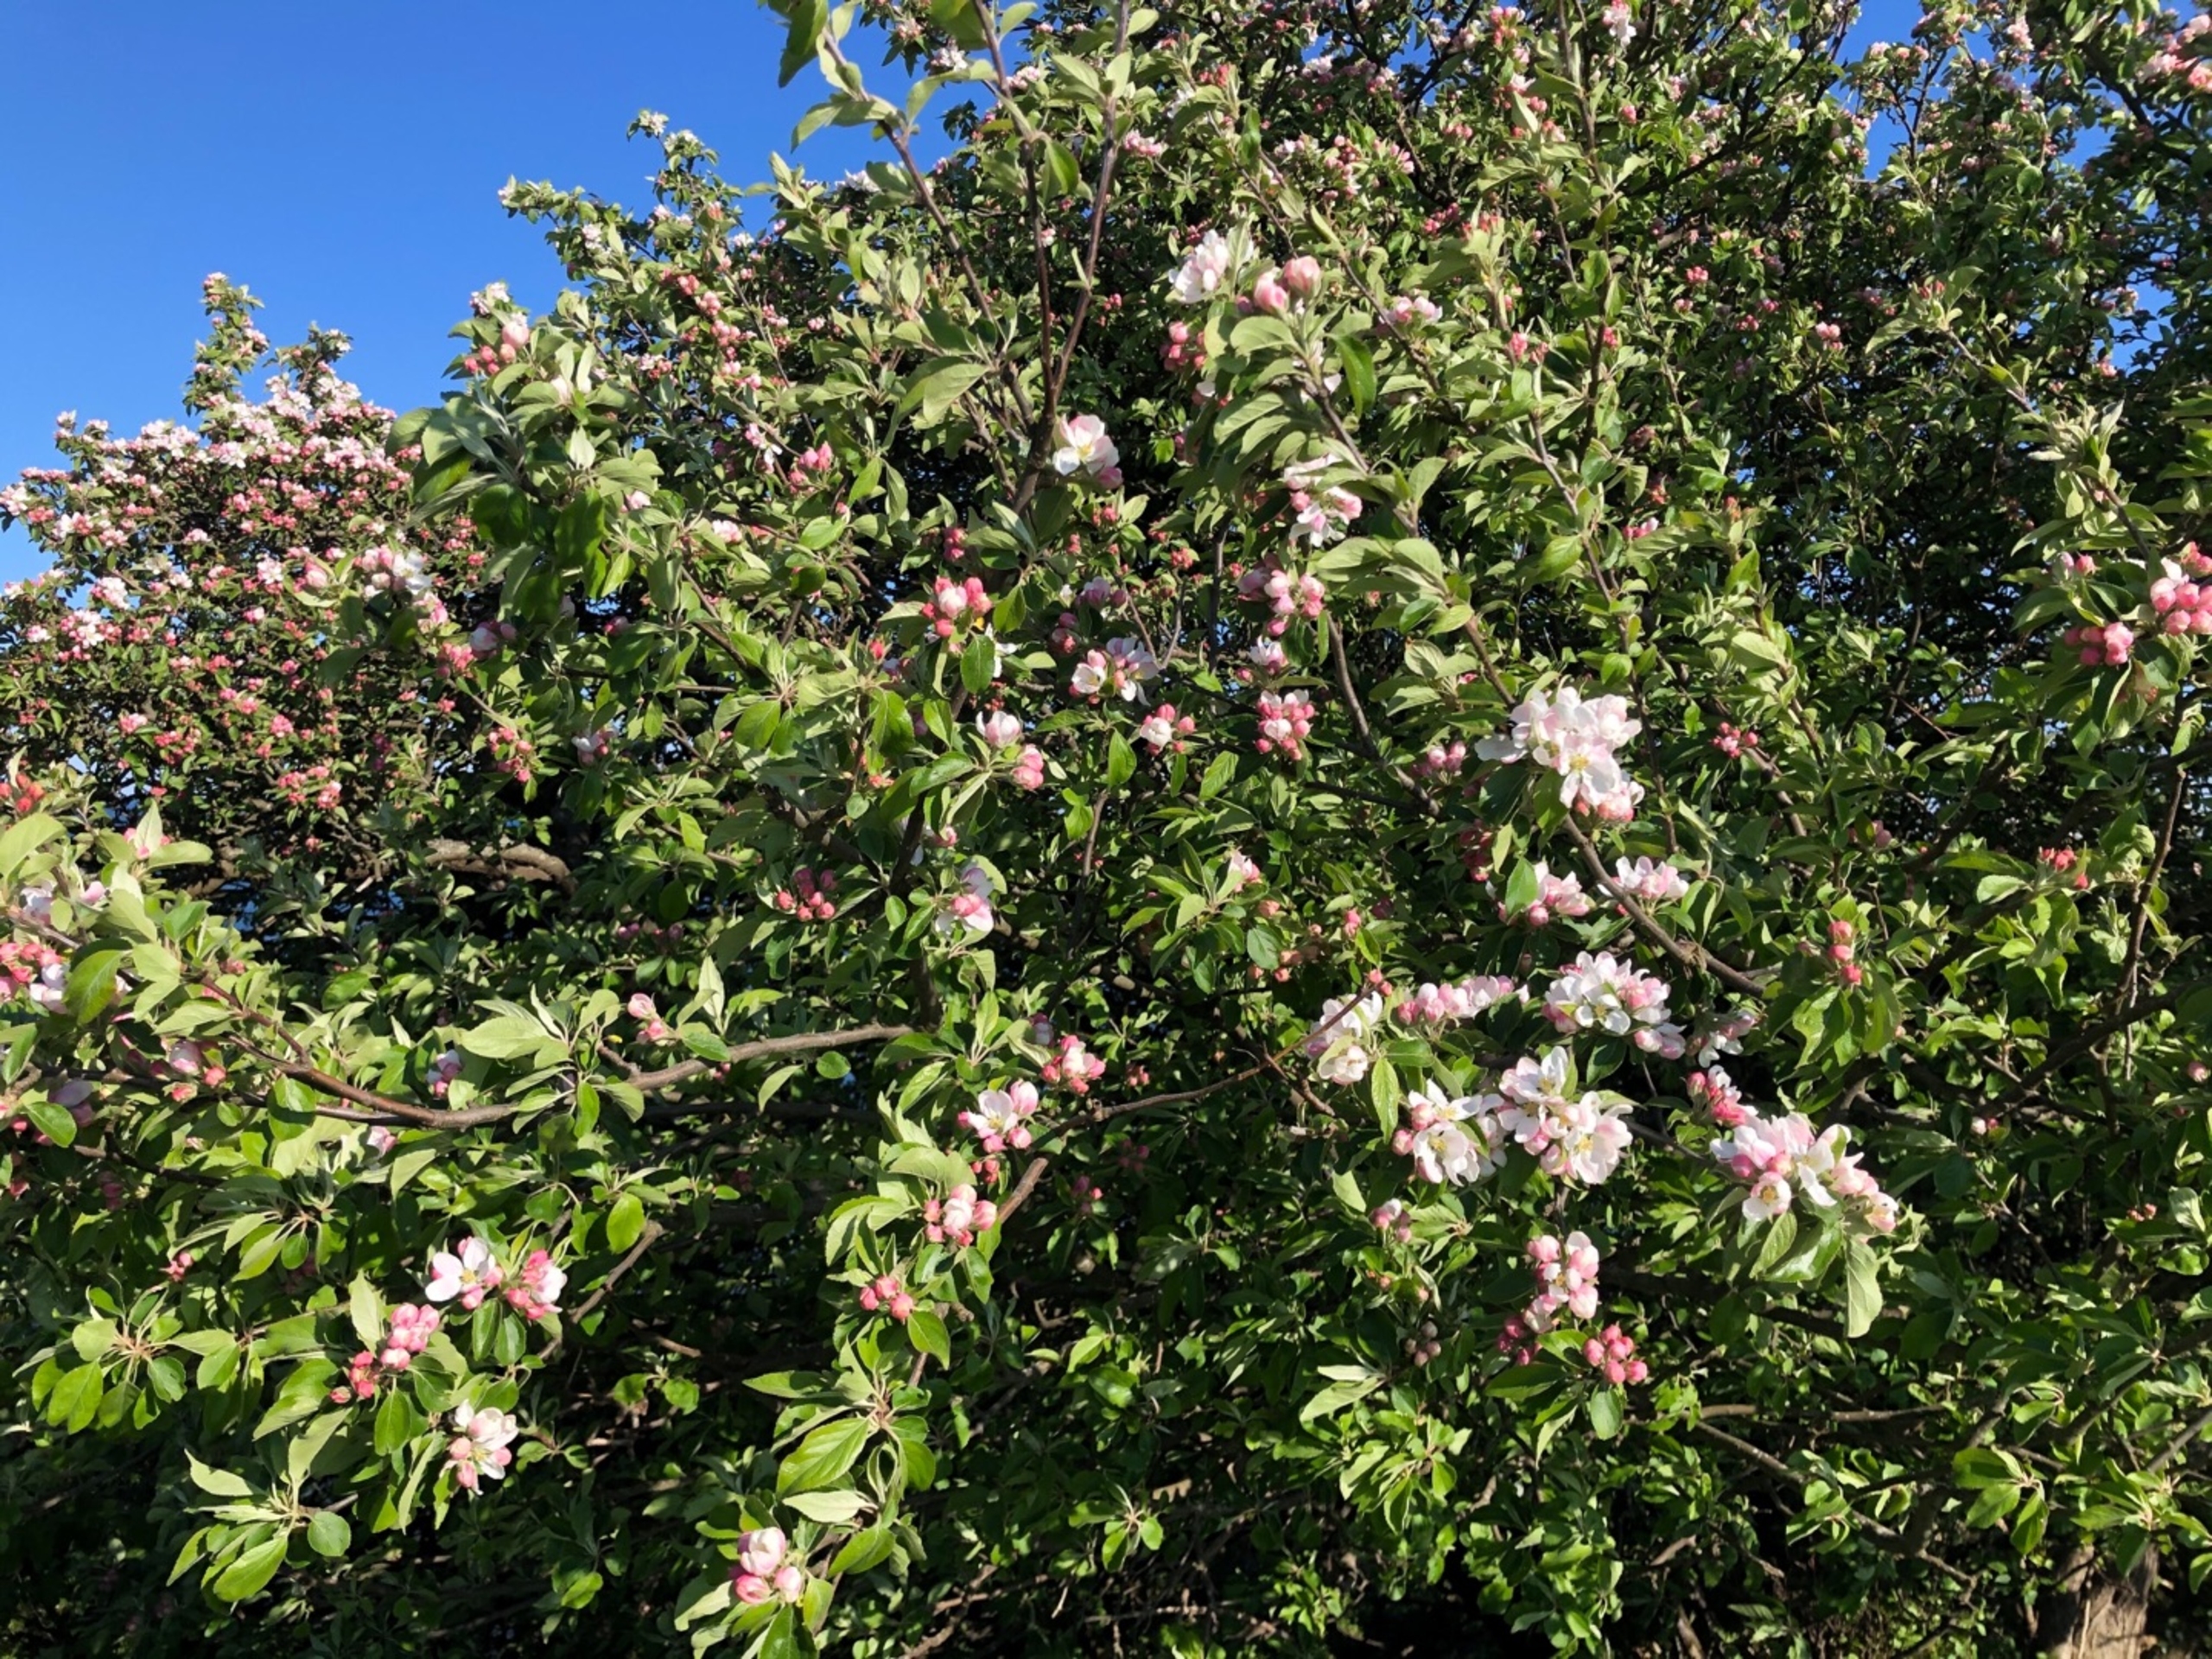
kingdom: Plantae
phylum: Tracheophyta
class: Magnoliopsida
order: Rosales
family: Rosaceae
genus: Malus
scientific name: Malus domestica
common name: Sød-æble
